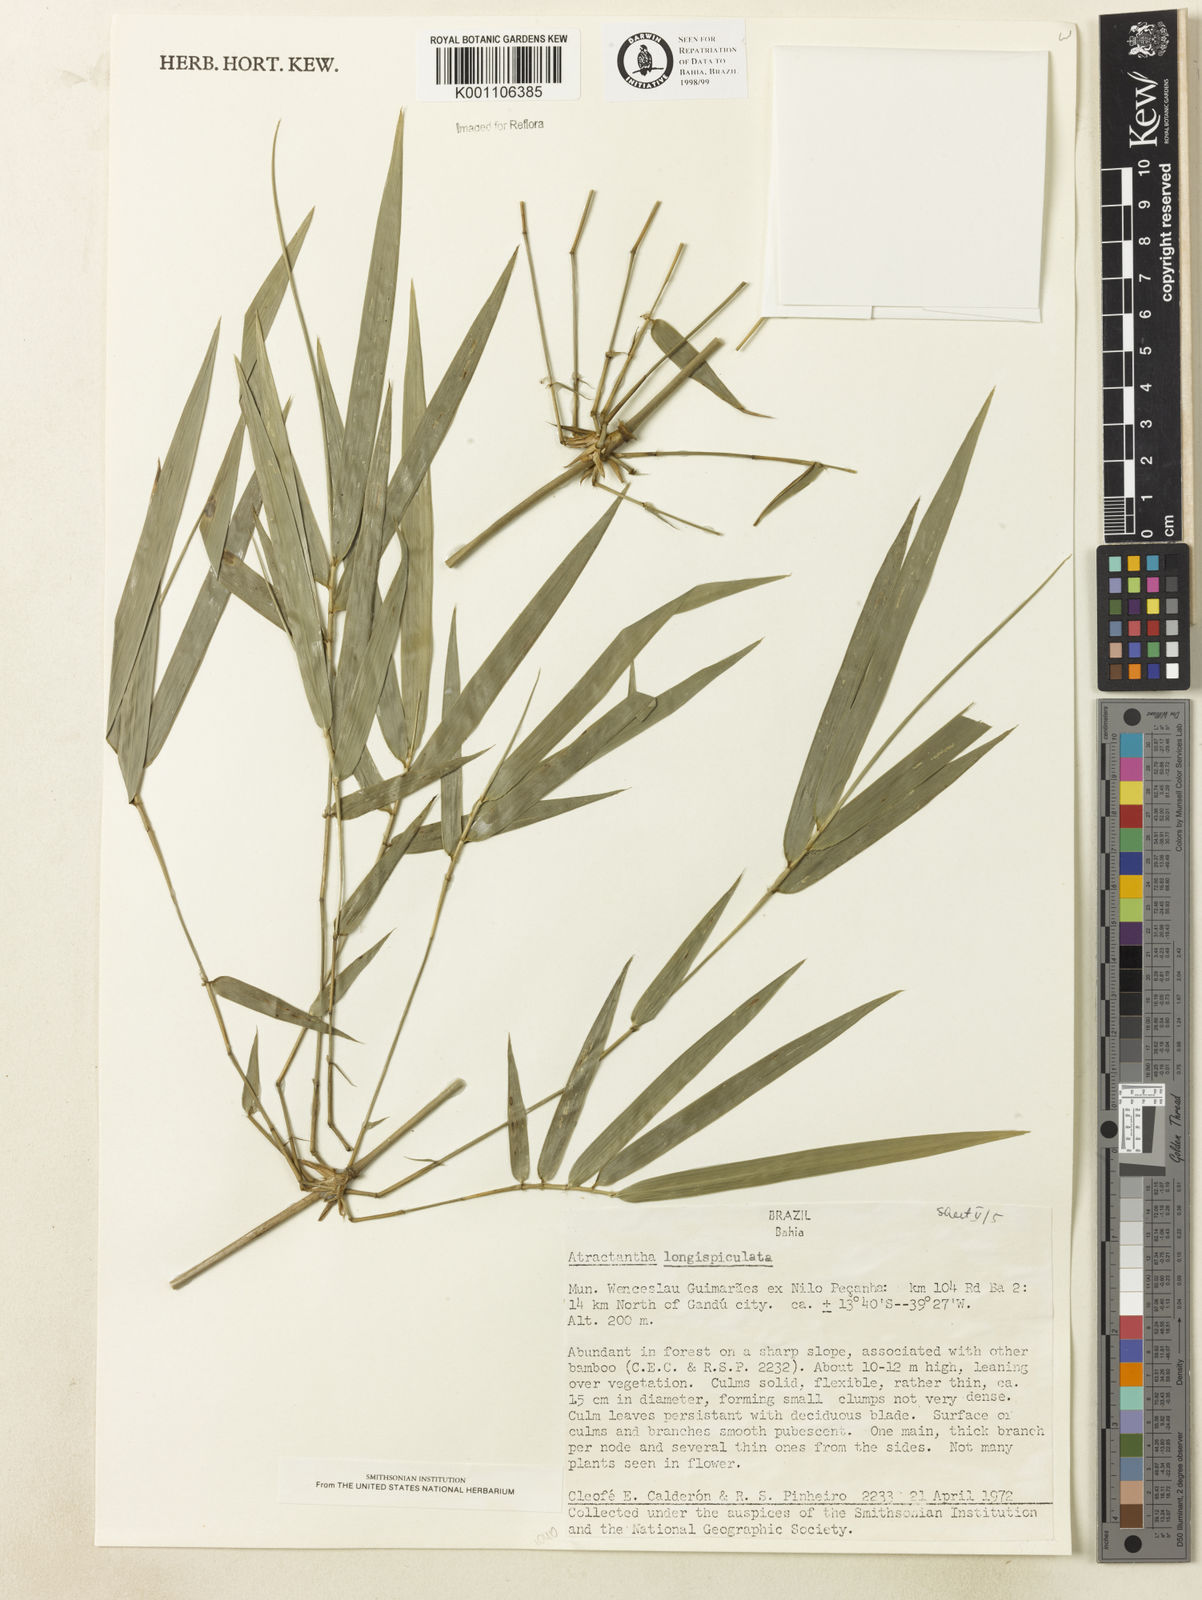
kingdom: Plantae
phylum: Tracheophyta
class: Liliopsida
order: Poales
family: Poaceae
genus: Atractantha
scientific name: Atractantha aureolanata
